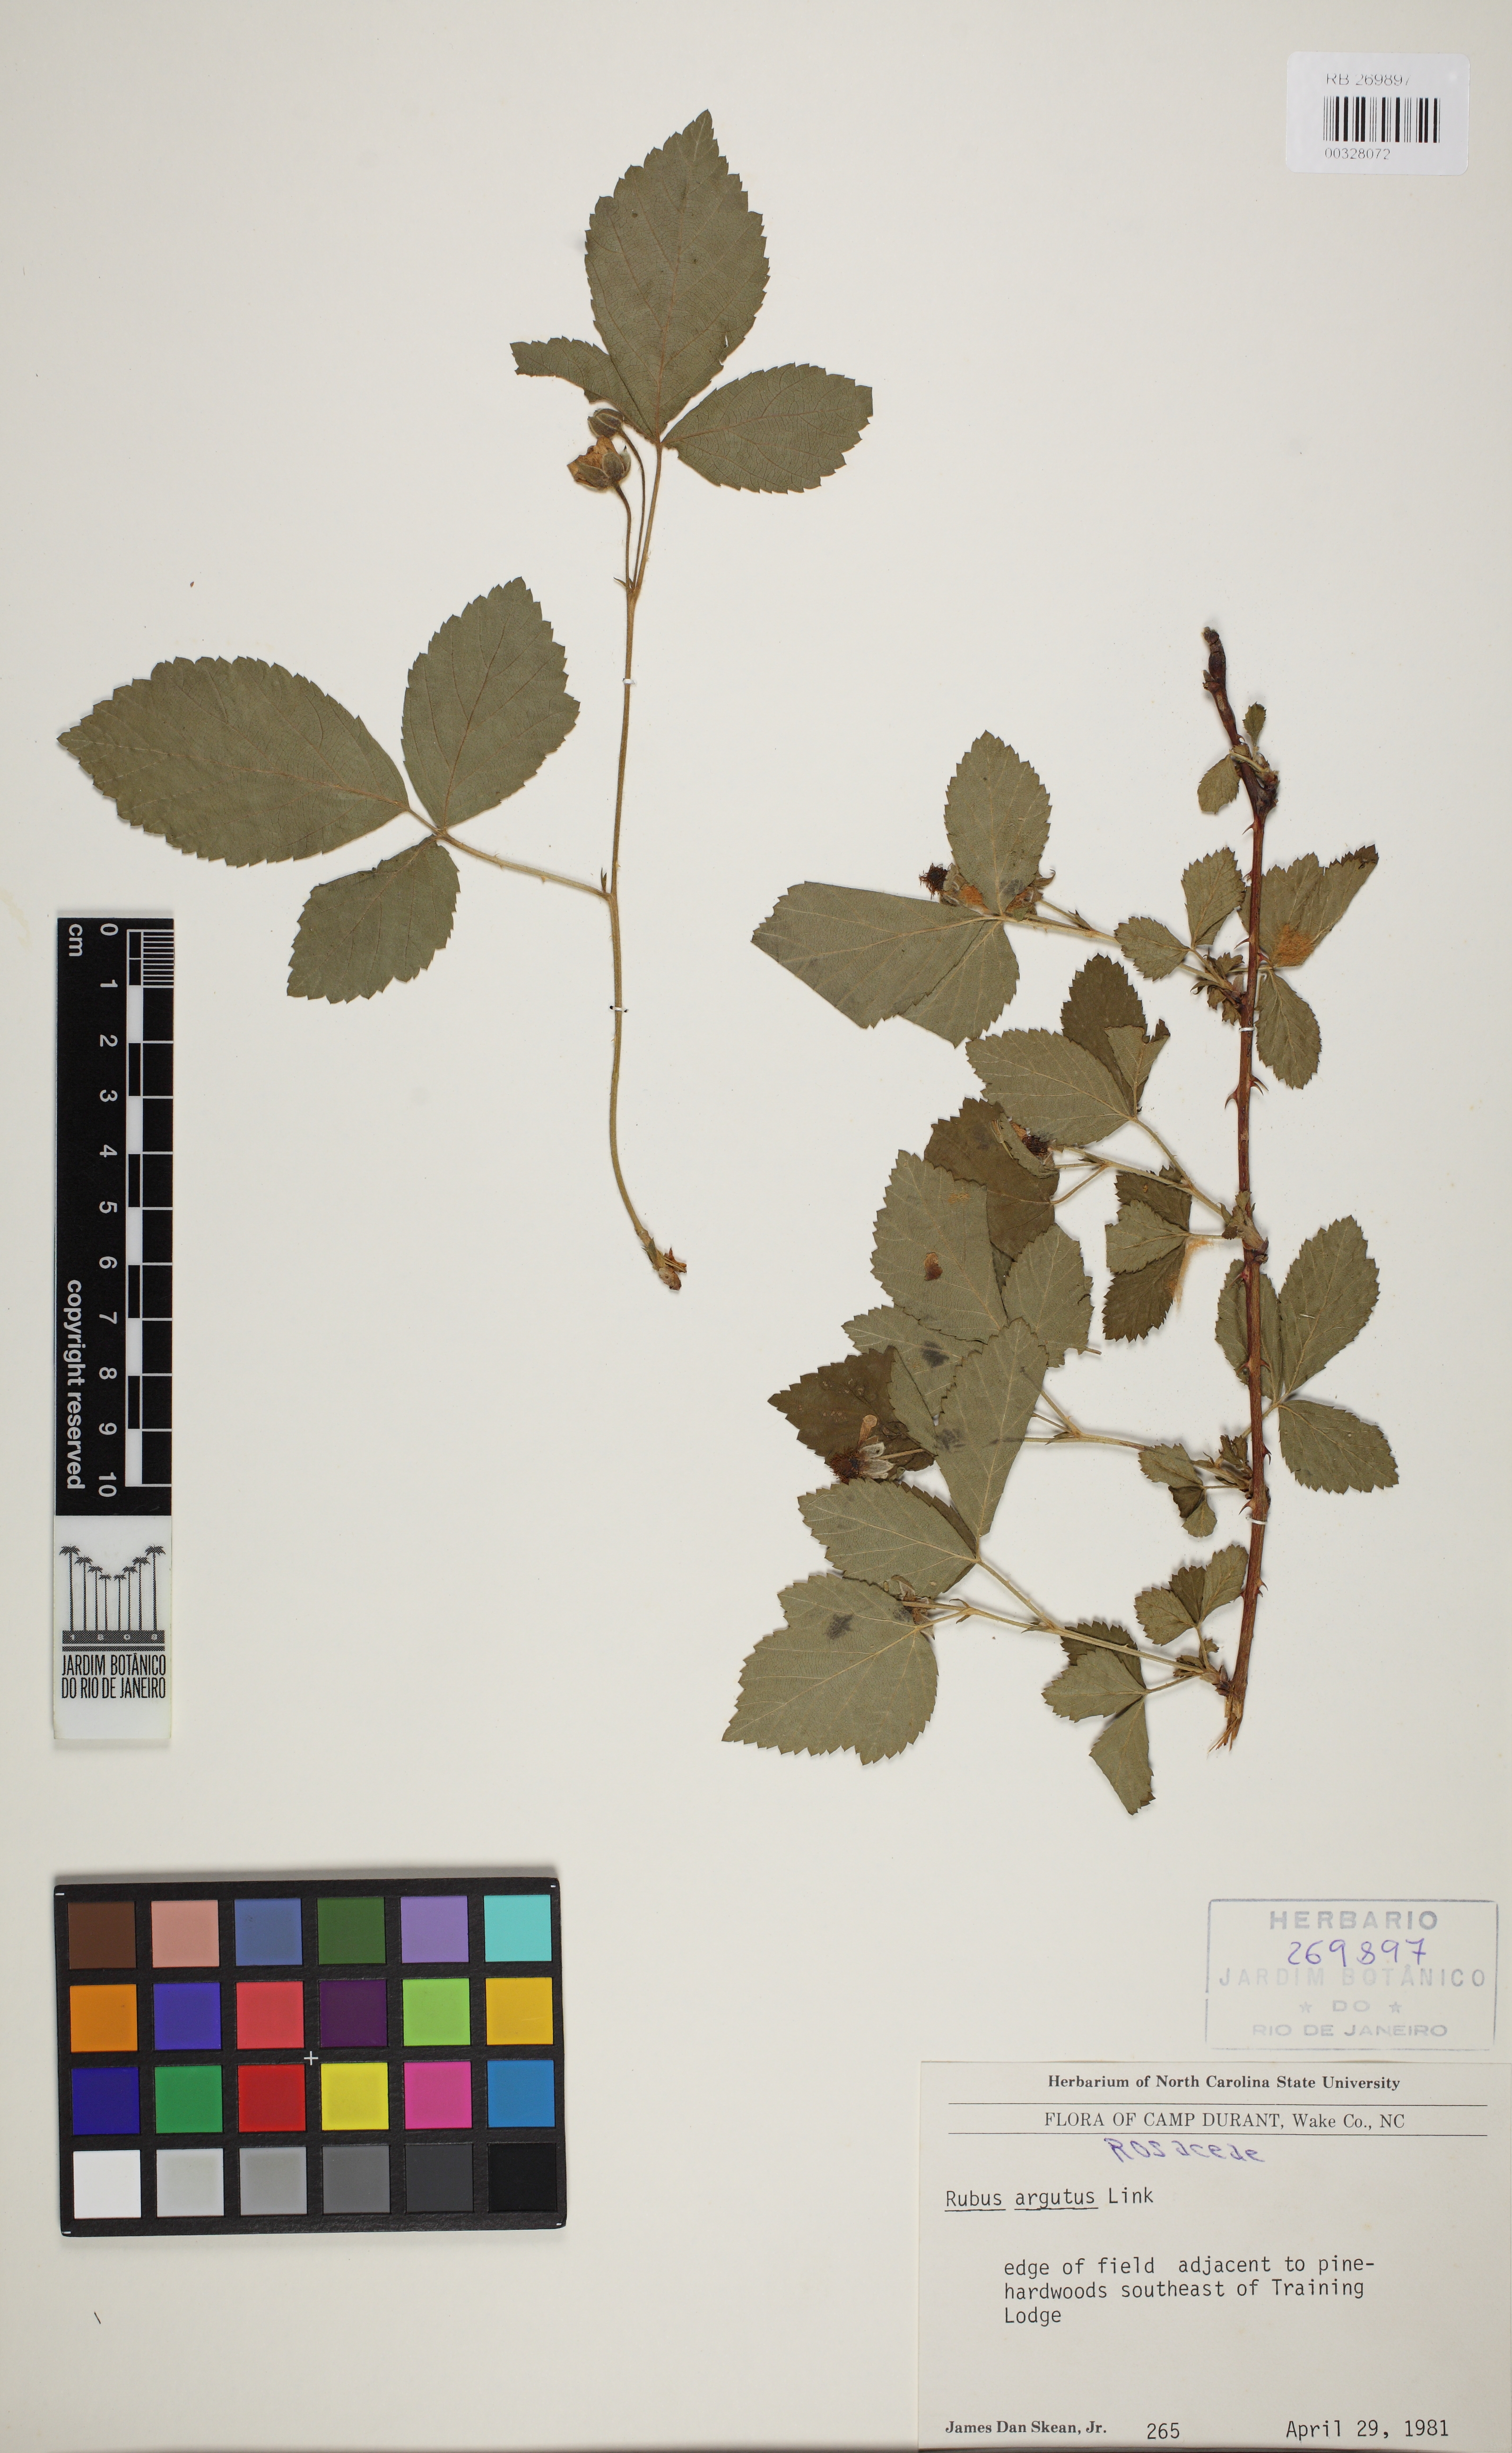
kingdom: Plantae
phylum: Tracheophyta
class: Magnoliopsida
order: Rosales
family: Rosaceae
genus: Rubus
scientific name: Rubus argutus
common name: Sawtooth blackberry
